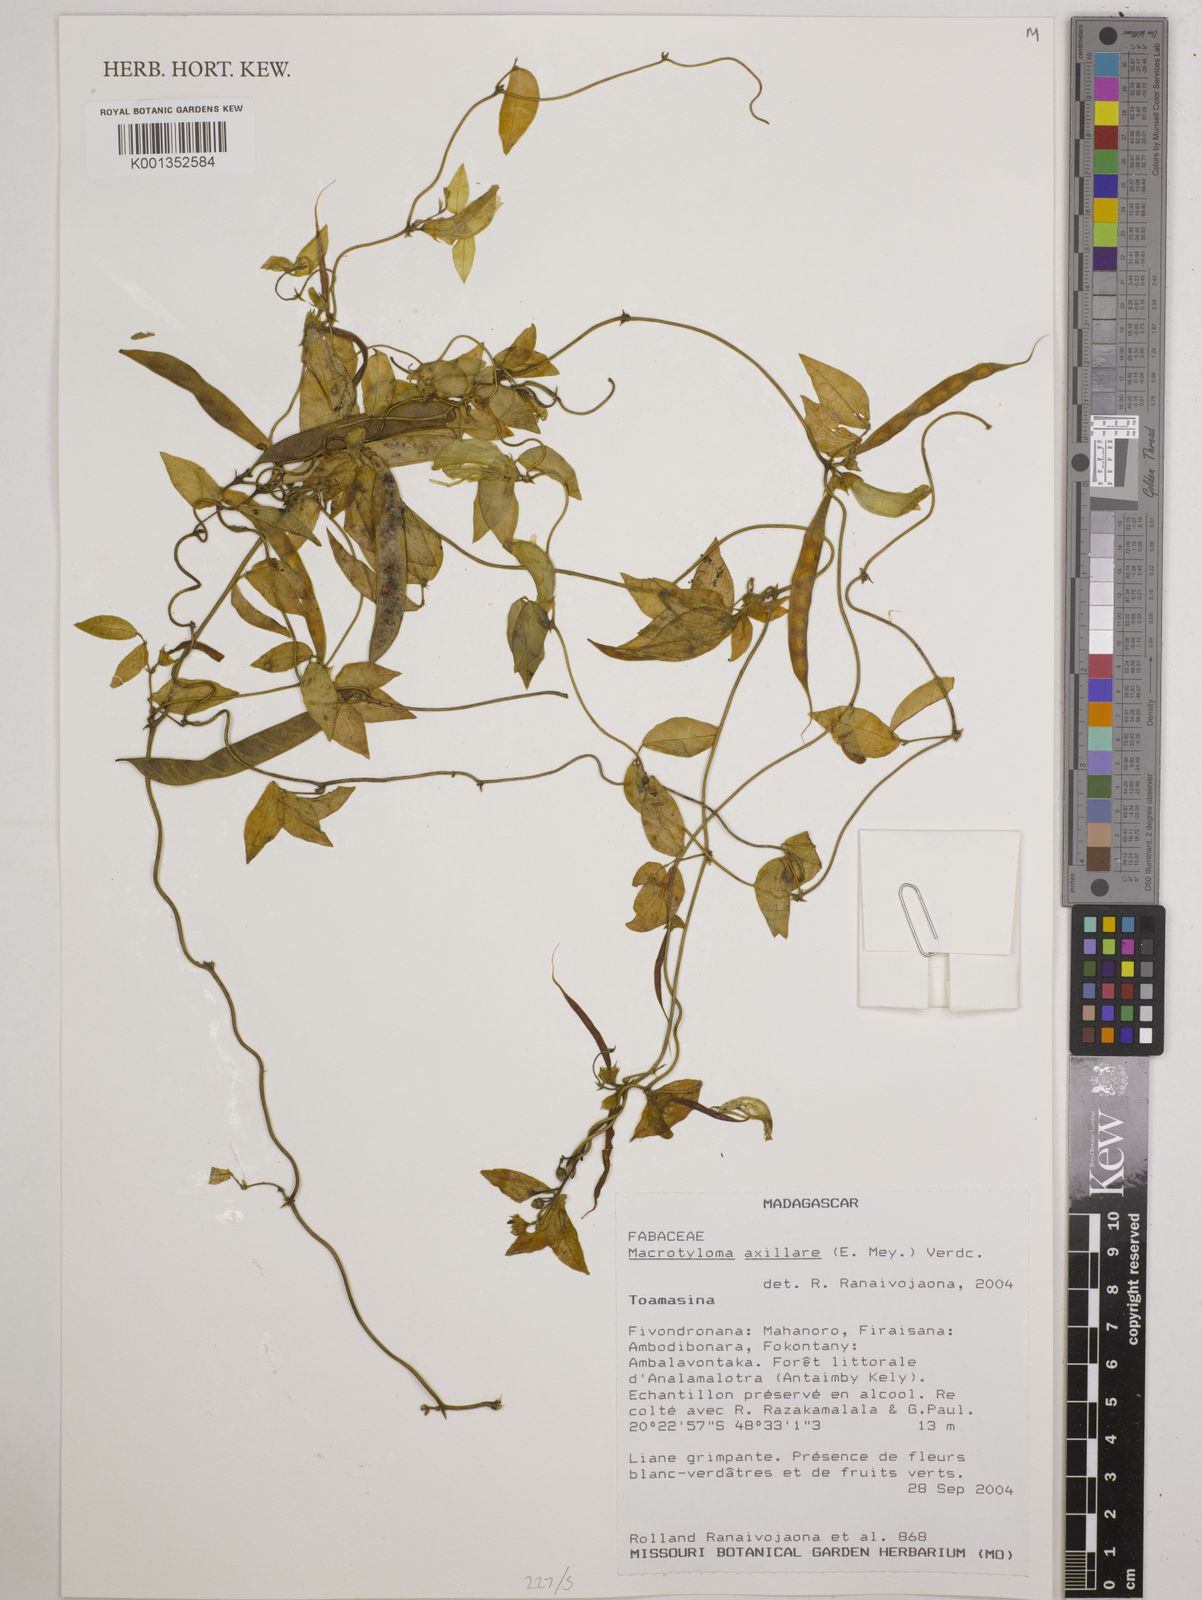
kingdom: Plantae
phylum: Tracheophyta
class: Magnoliopsida
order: Fabales
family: Fabaceae
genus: Macrotyloma
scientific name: Macrotyloma axillare
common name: Perennial horsegram
